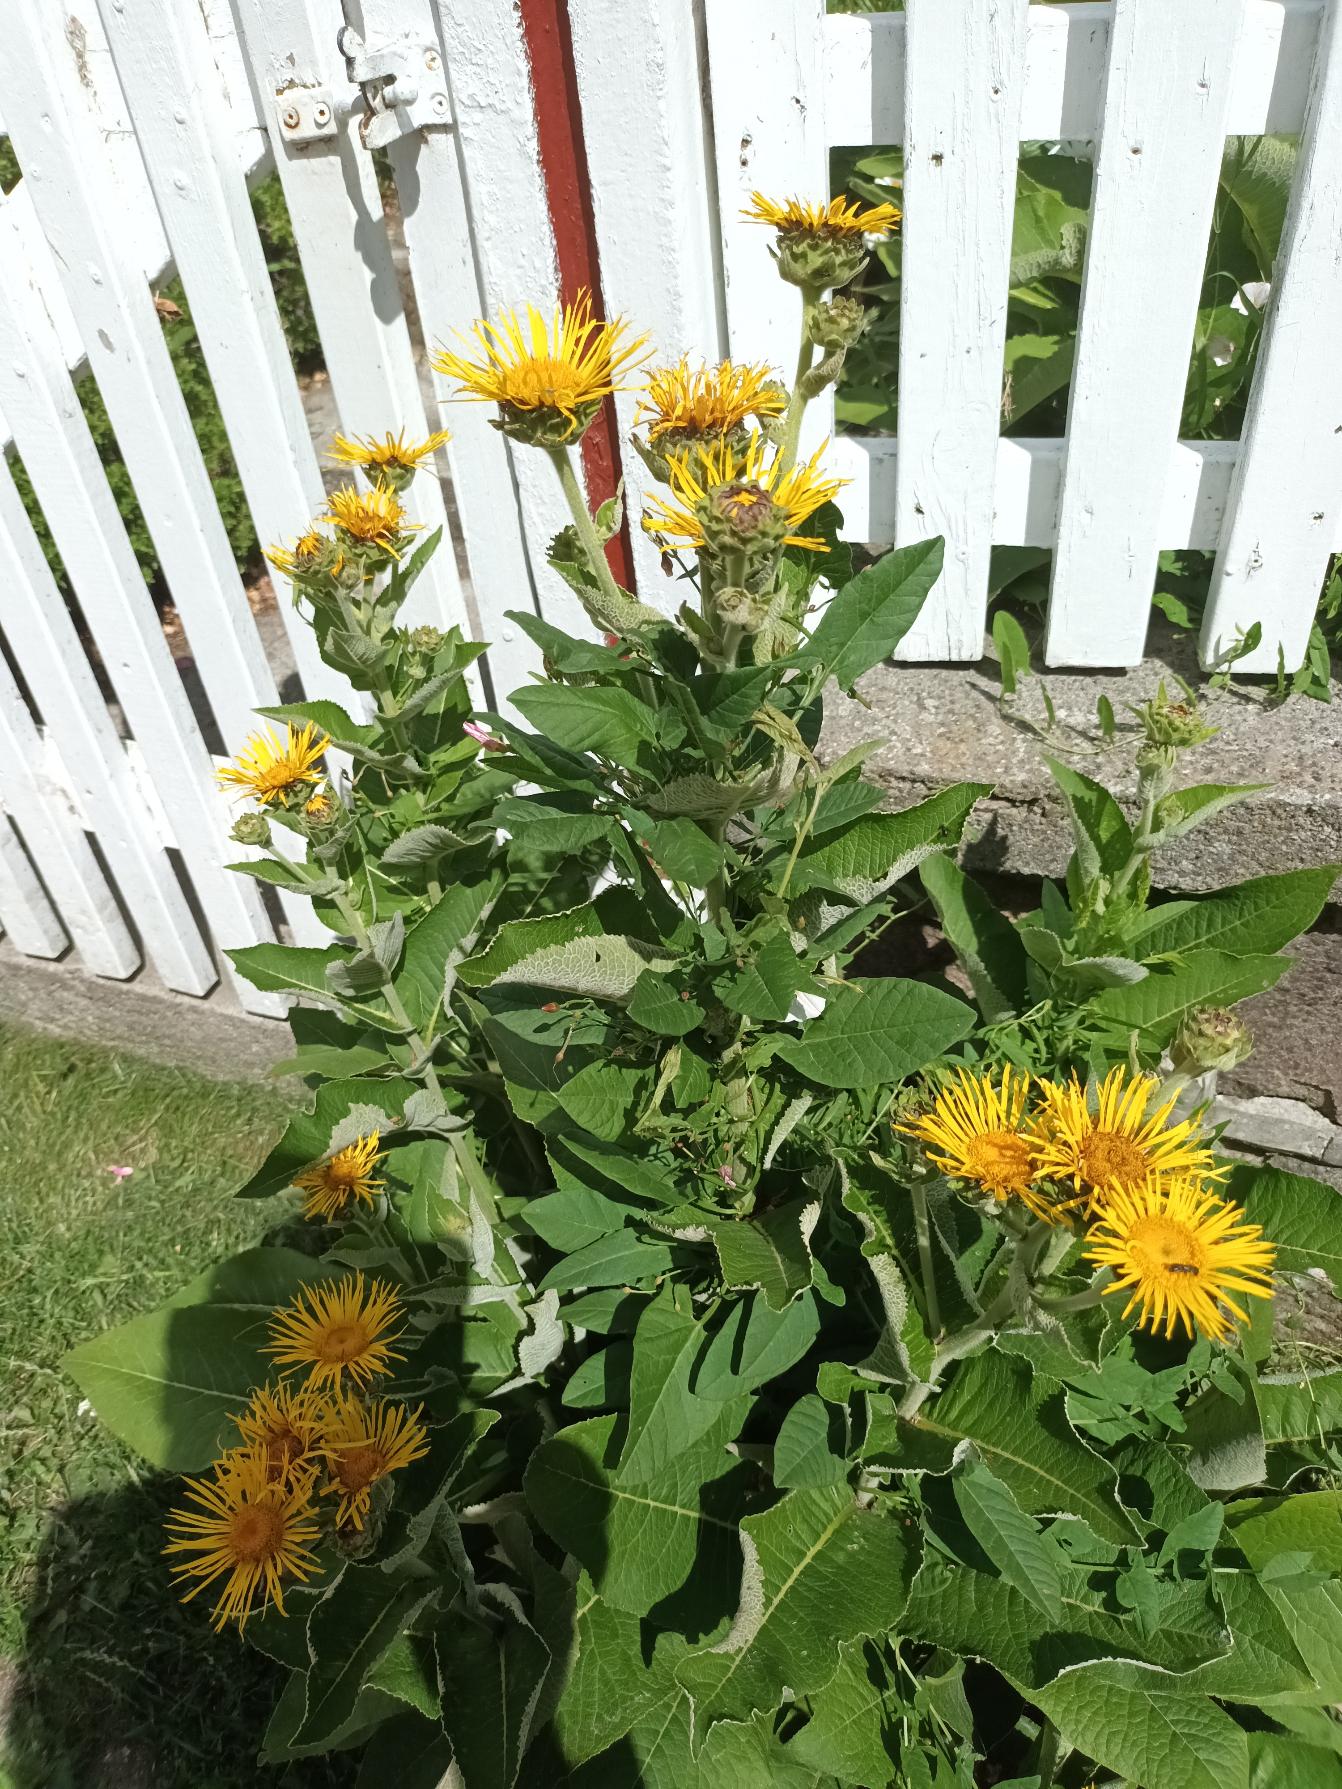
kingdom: Plantae
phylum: Tracheophyta
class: Magnoliopsida
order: Asterales
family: Asteraceae
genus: Inula
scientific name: Inula helenium
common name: Læge-alant
